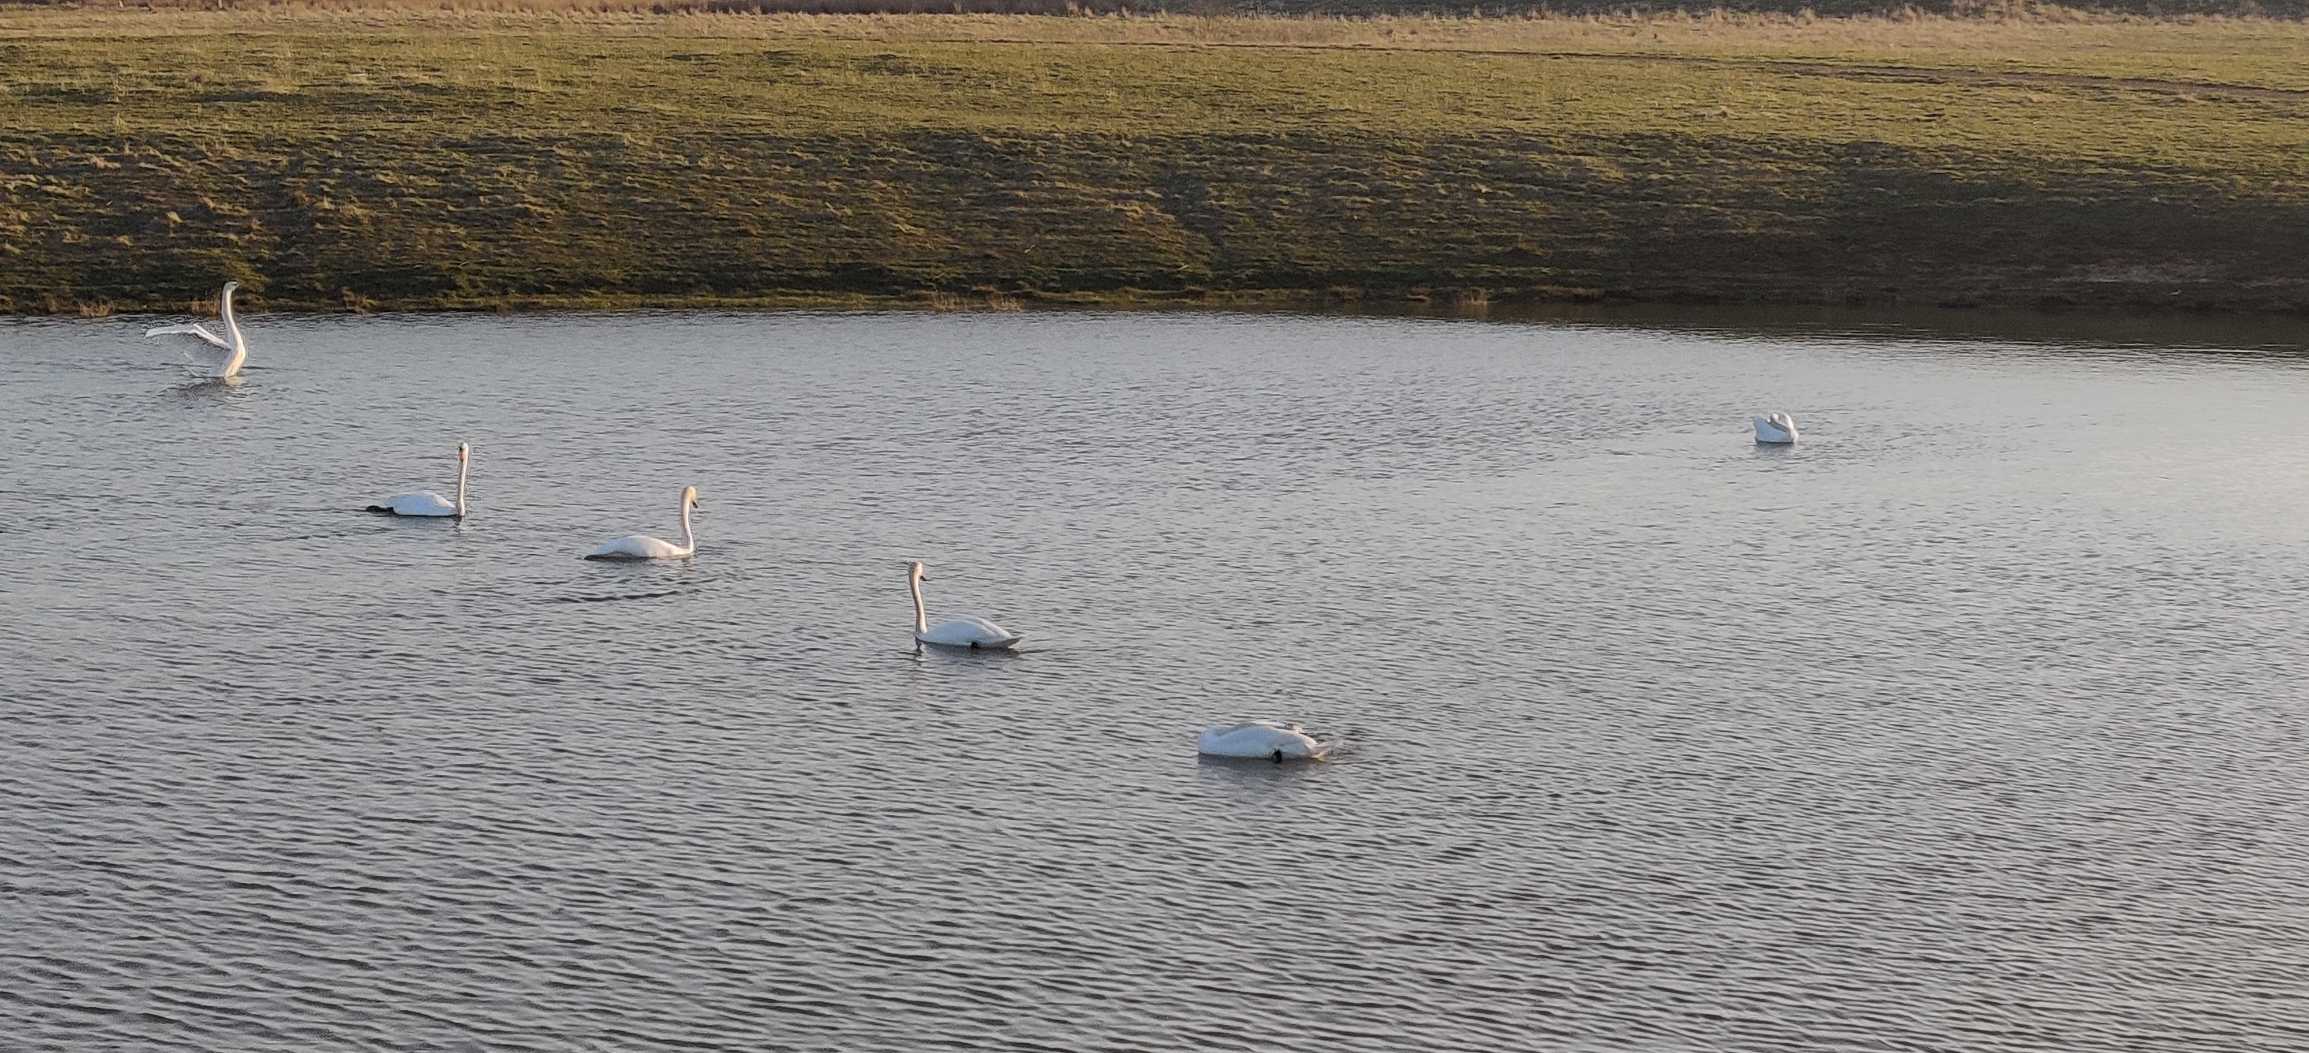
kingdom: Animalia
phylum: Chordata
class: Aves
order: Anseriformes
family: Anatidae
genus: Cygnus
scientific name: Cygnus olor
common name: Knopsvane
